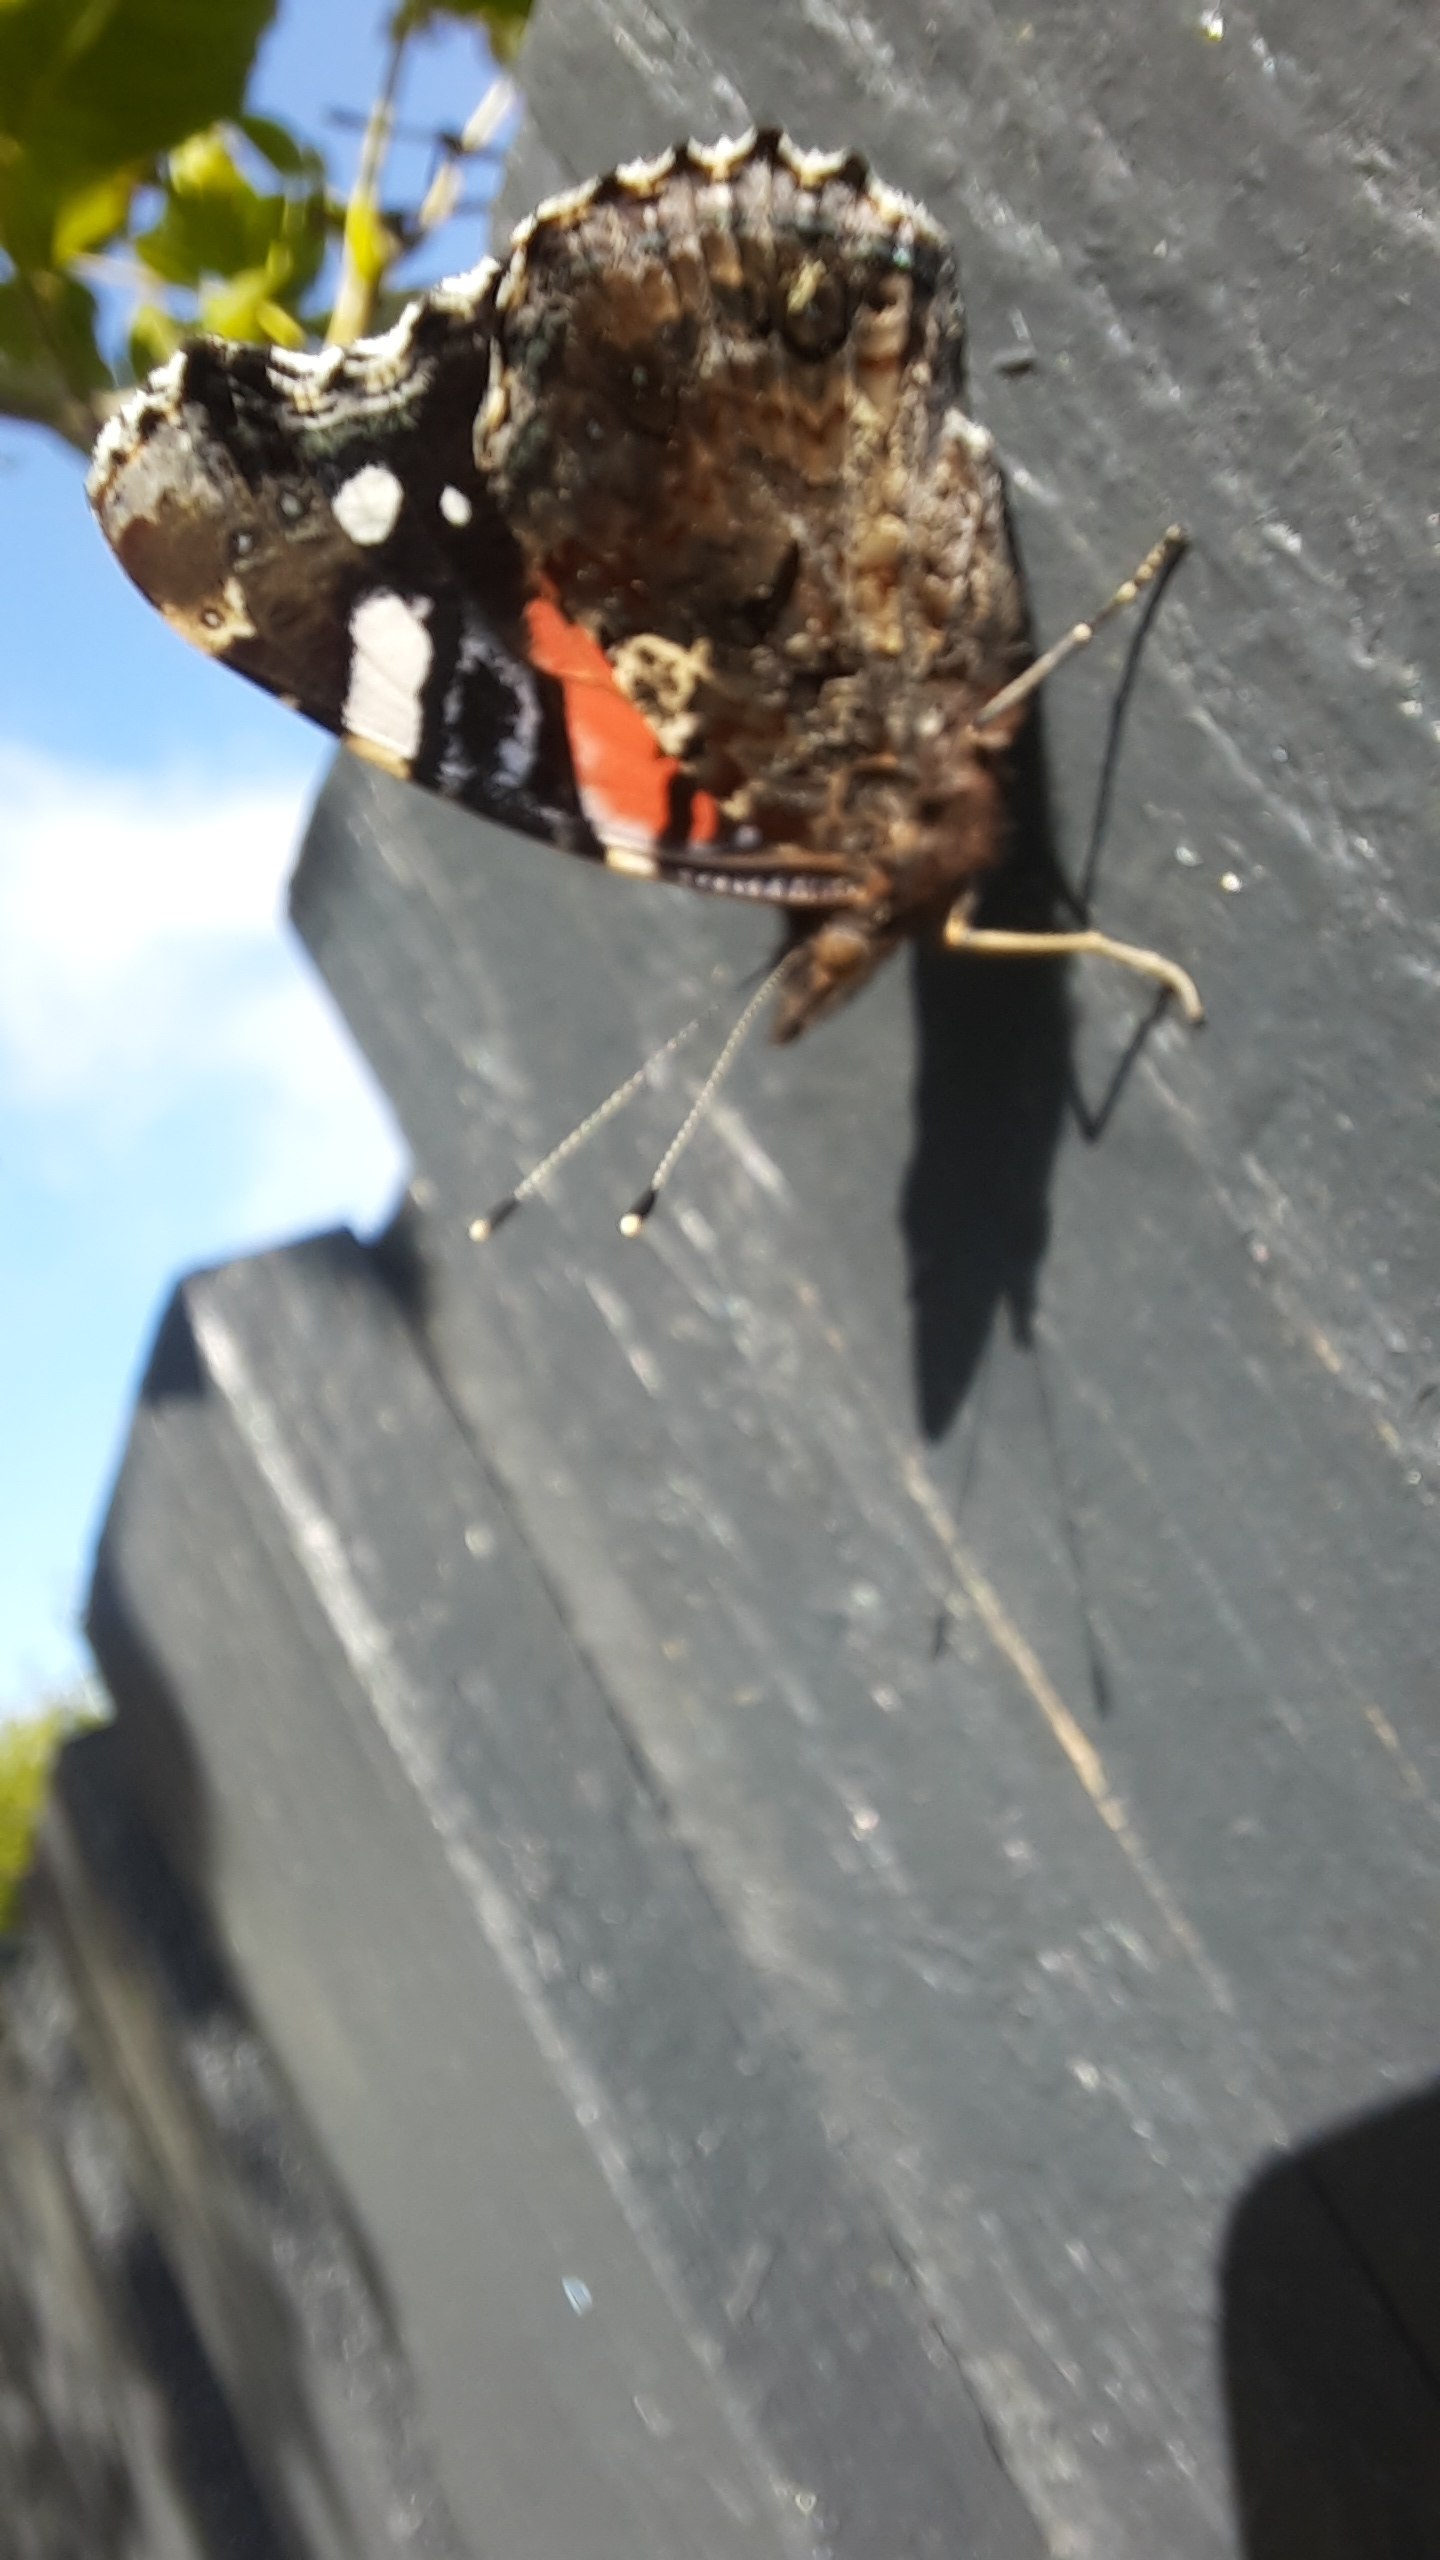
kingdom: Animalia
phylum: Arthropoda
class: Insecta
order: Lepidoptera
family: Nymphalidae
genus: Vanessa
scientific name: Vanessa atalanta
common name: Admiral
